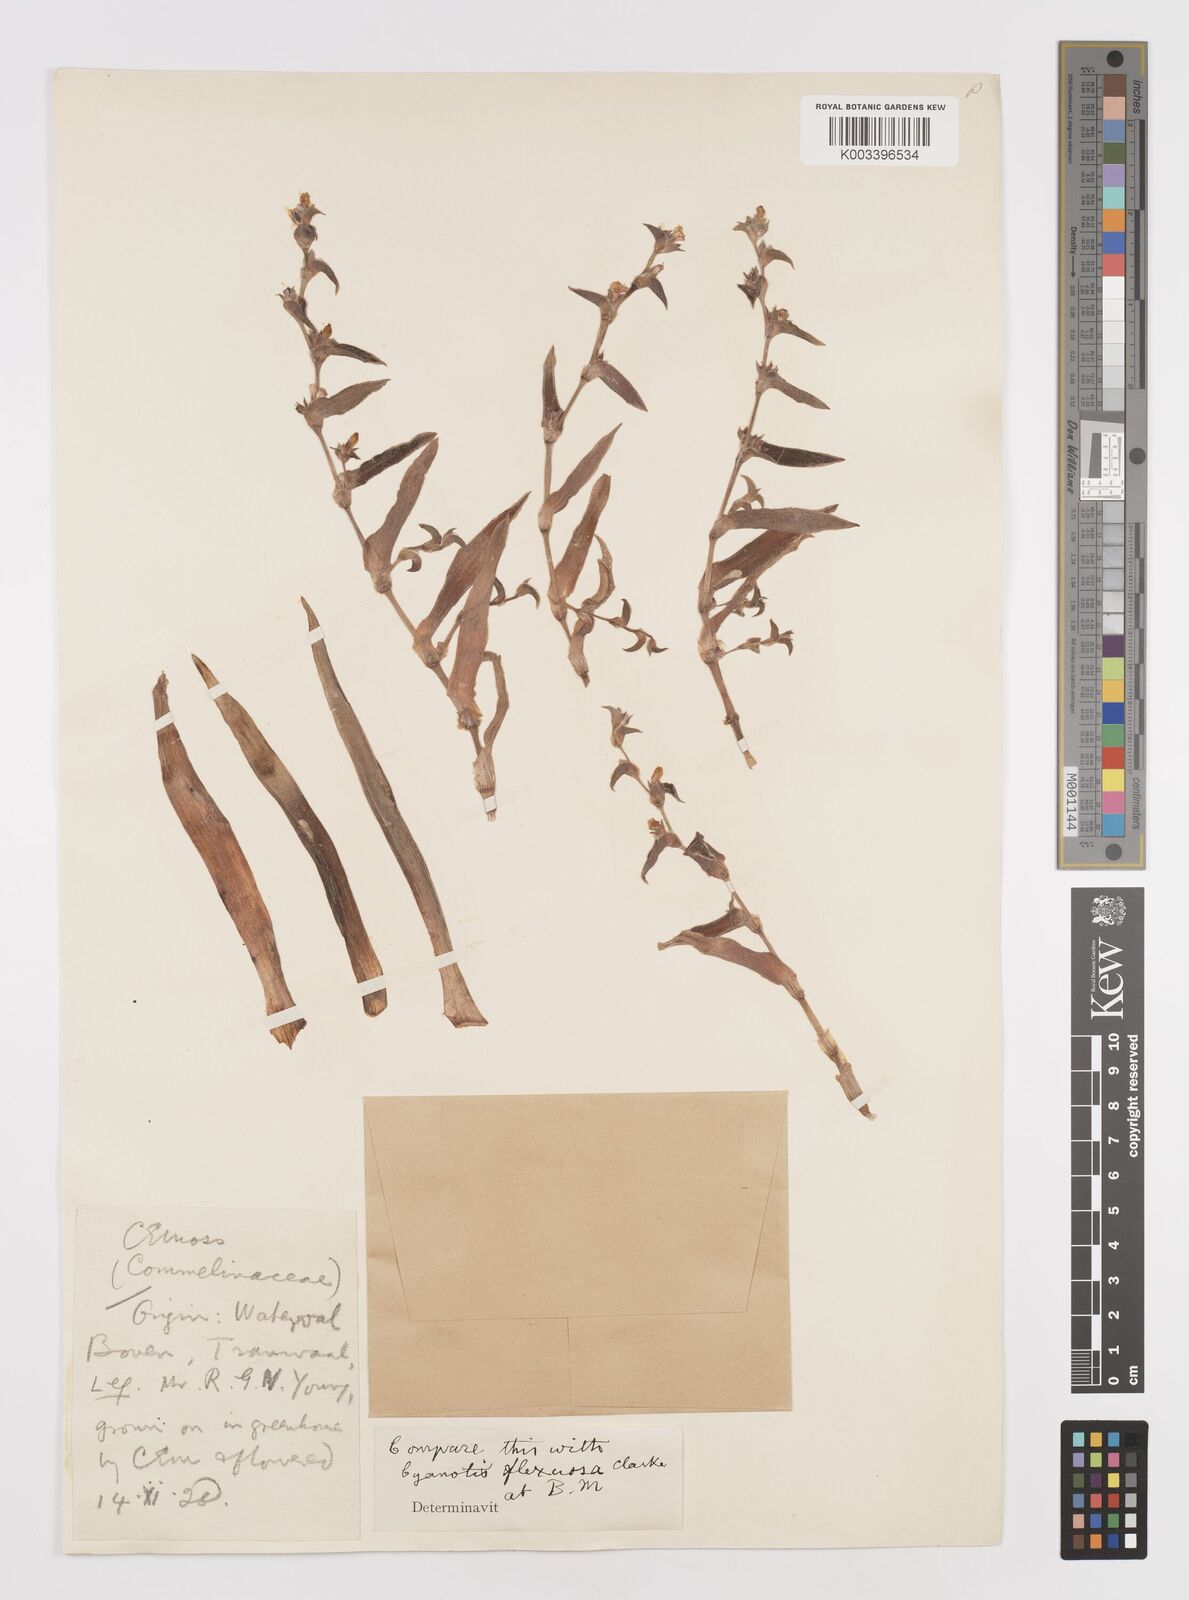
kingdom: Plantae
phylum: Tracheophyta
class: Liliopsida
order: Commelinales
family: Commelinaceae
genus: Cyanotis
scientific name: Cyanotis lapidosa
